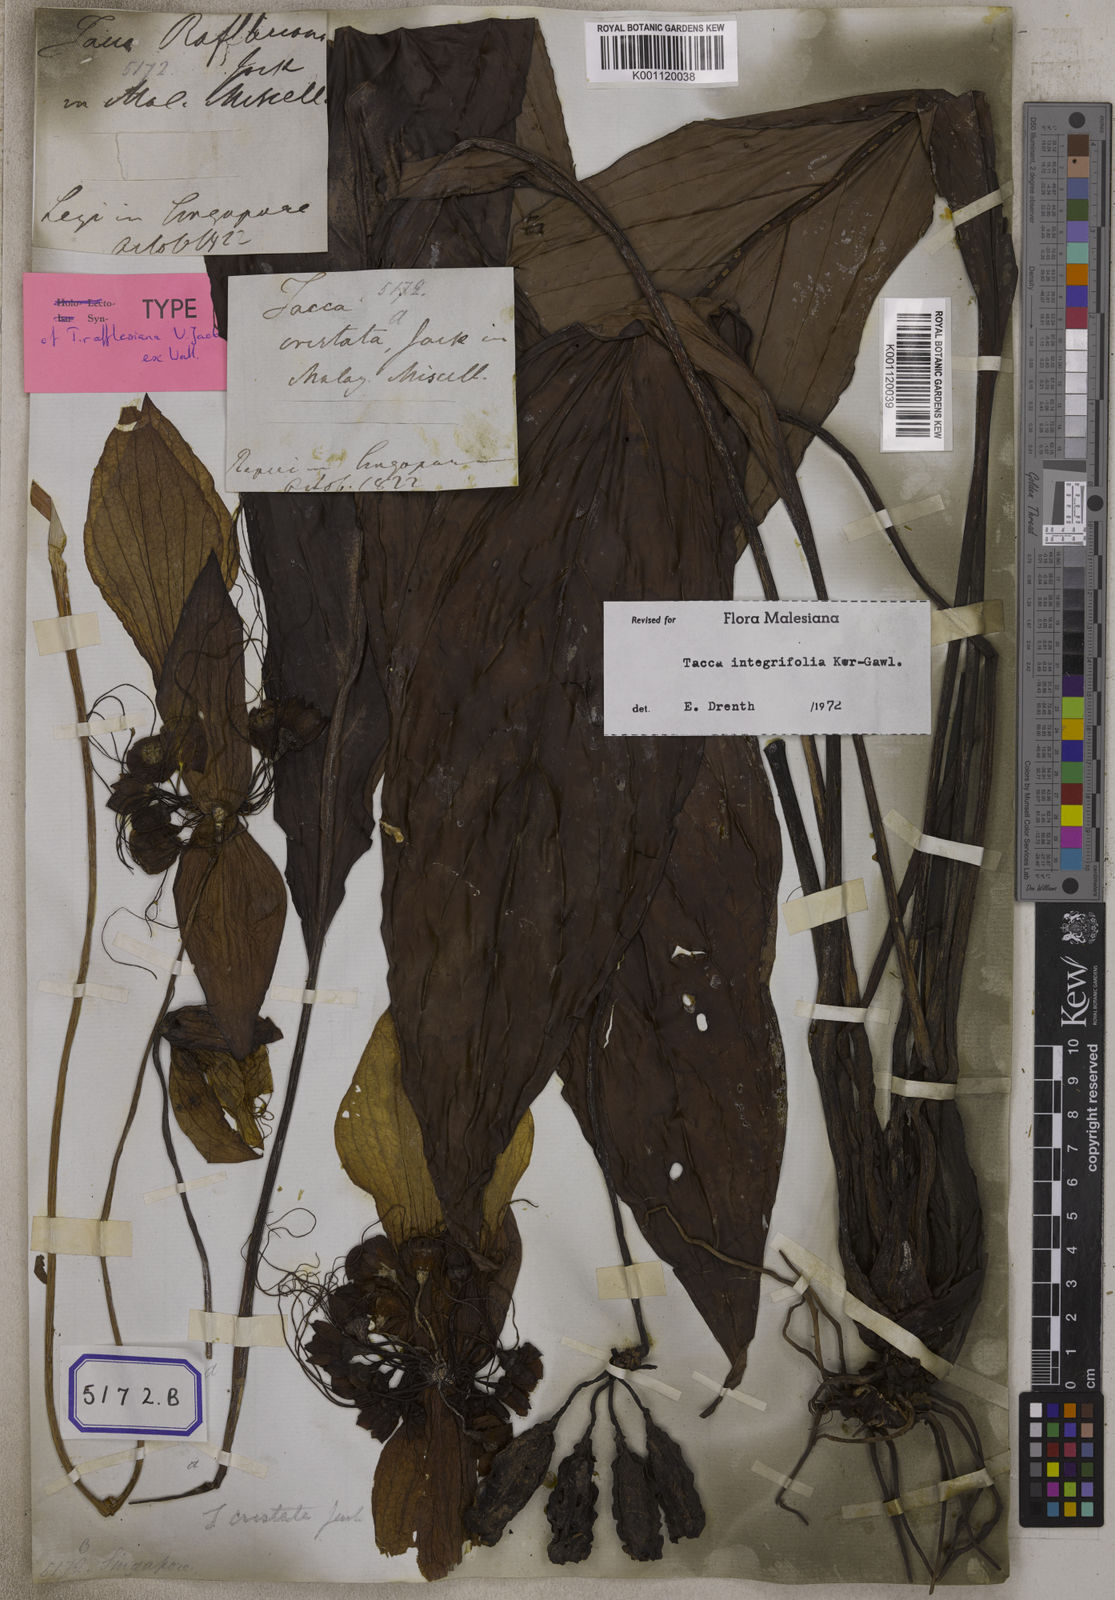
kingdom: Plantae
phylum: Tracheophyta
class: Liliopsida
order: Dioscoreales
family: Dioscoreaceae
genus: Tacca
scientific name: Tacca integrifolia
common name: Batplant
